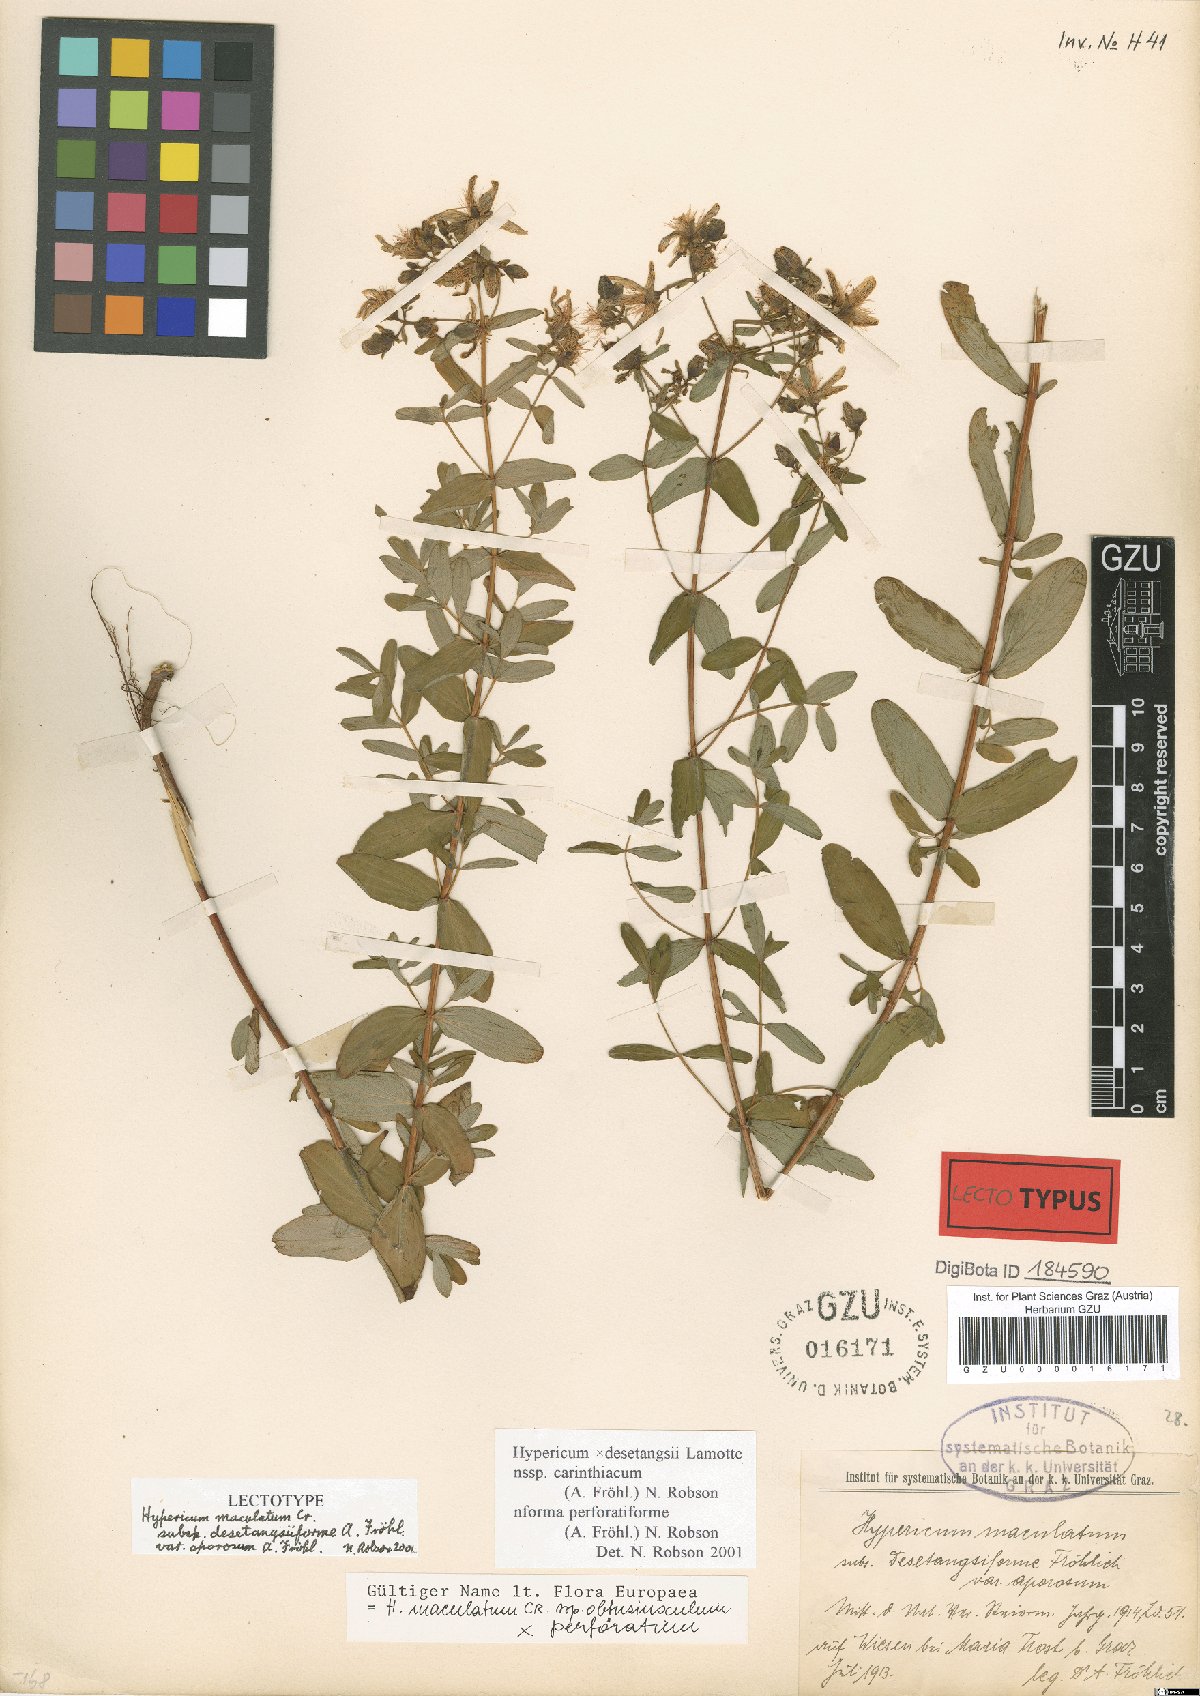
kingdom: Plantae
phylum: Tracheophyta
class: Magnoliopsida
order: Malpighiales
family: Hypericaceae
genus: Hypericum
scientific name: Hypericum maculatum
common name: Imperforate st. john's-wort
